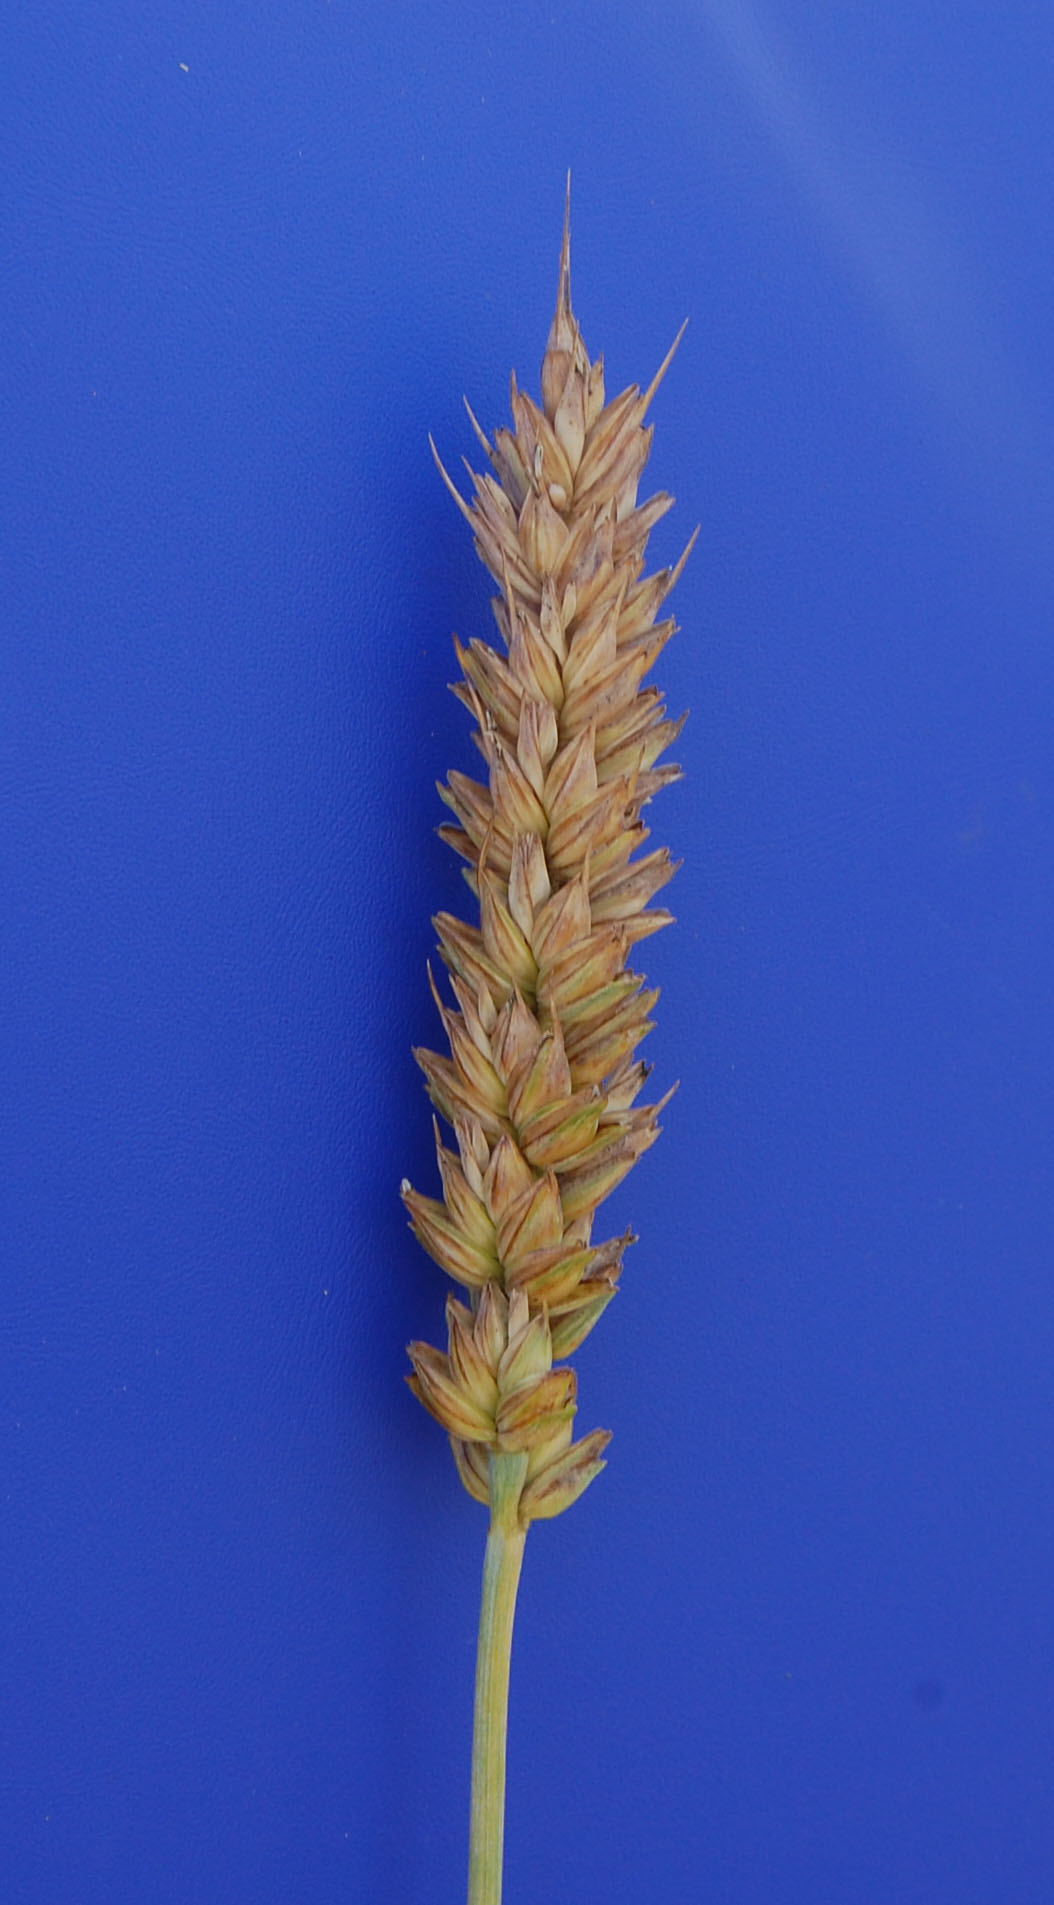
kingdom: Plantae
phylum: Tracheophyta
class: Liliopsida
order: Poales
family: Poaceae
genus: Triticum
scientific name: Triticum aestivum
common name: Common wheat
